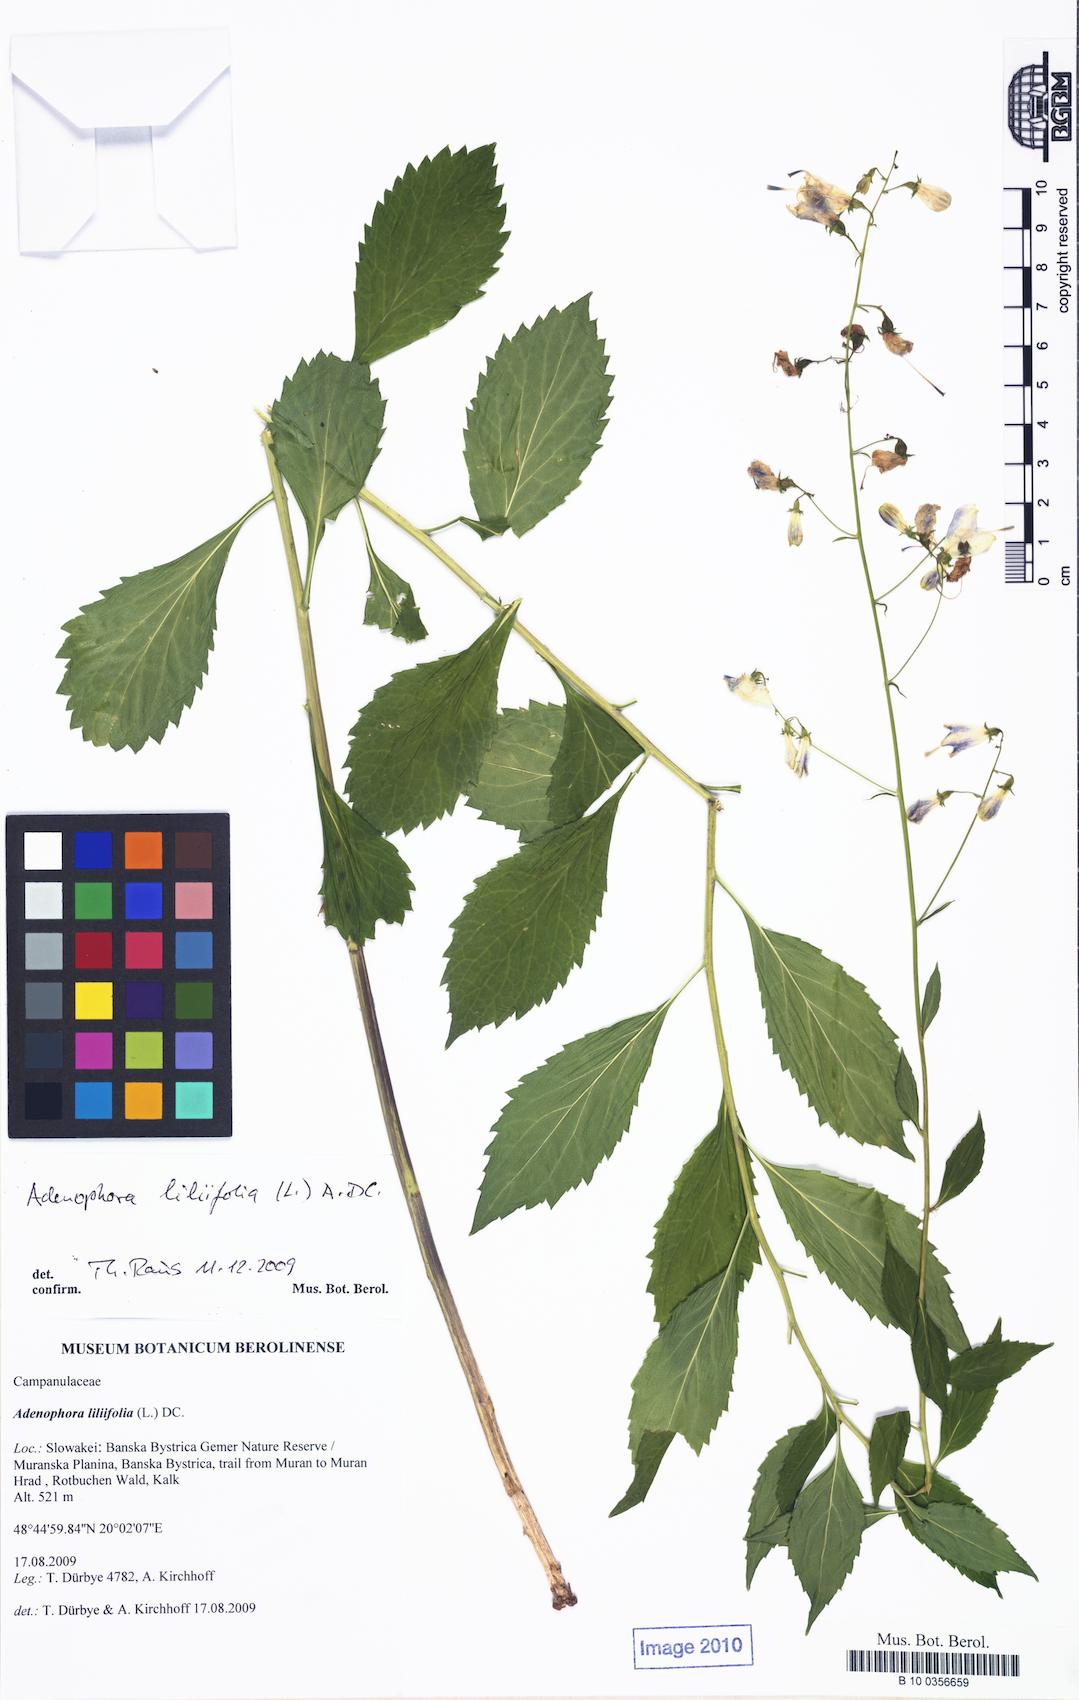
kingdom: Plantae
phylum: Tracheophyta
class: Magnoliopsida
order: Asterales
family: Campanulaceae
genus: Adenophora
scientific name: Adenophora liliifolia
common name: Lilyleaf ladybells
